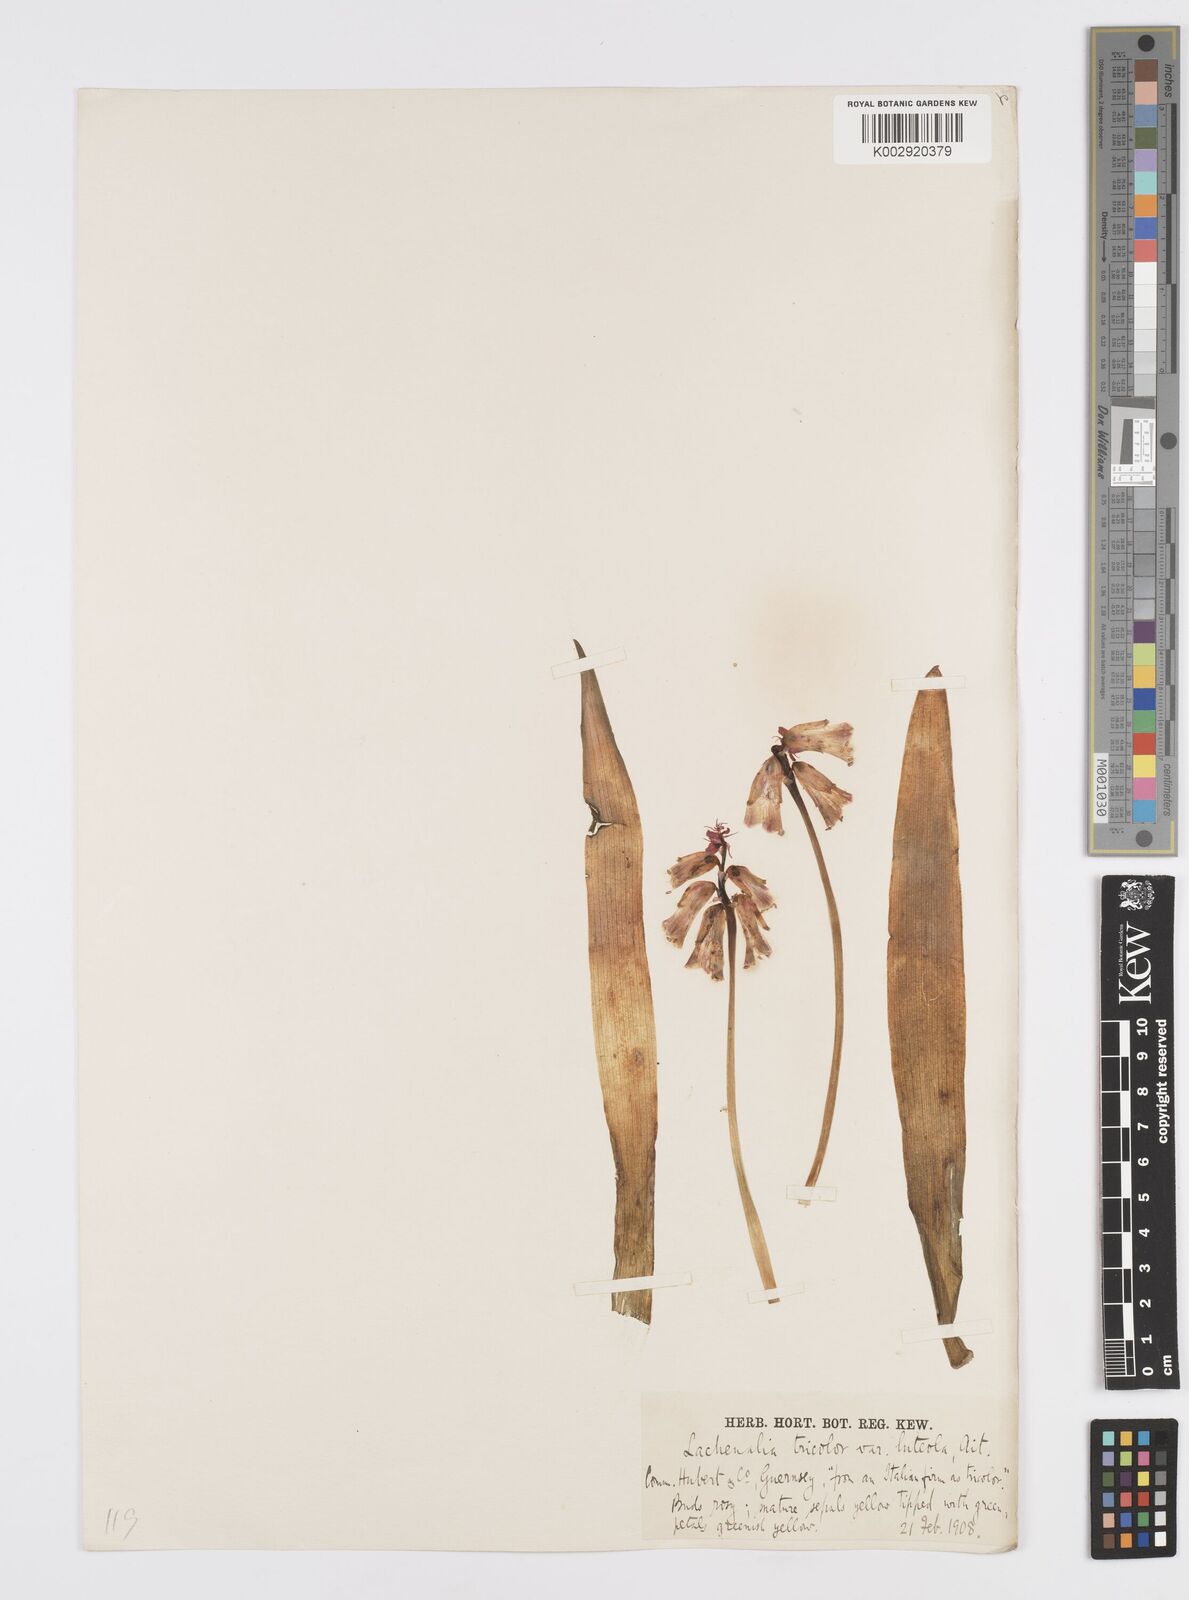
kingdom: Plantae
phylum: Tracheophyta
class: Liliopsida
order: Asparagales
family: Asparagaceae
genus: Lachenalia
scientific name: Lachenalia
